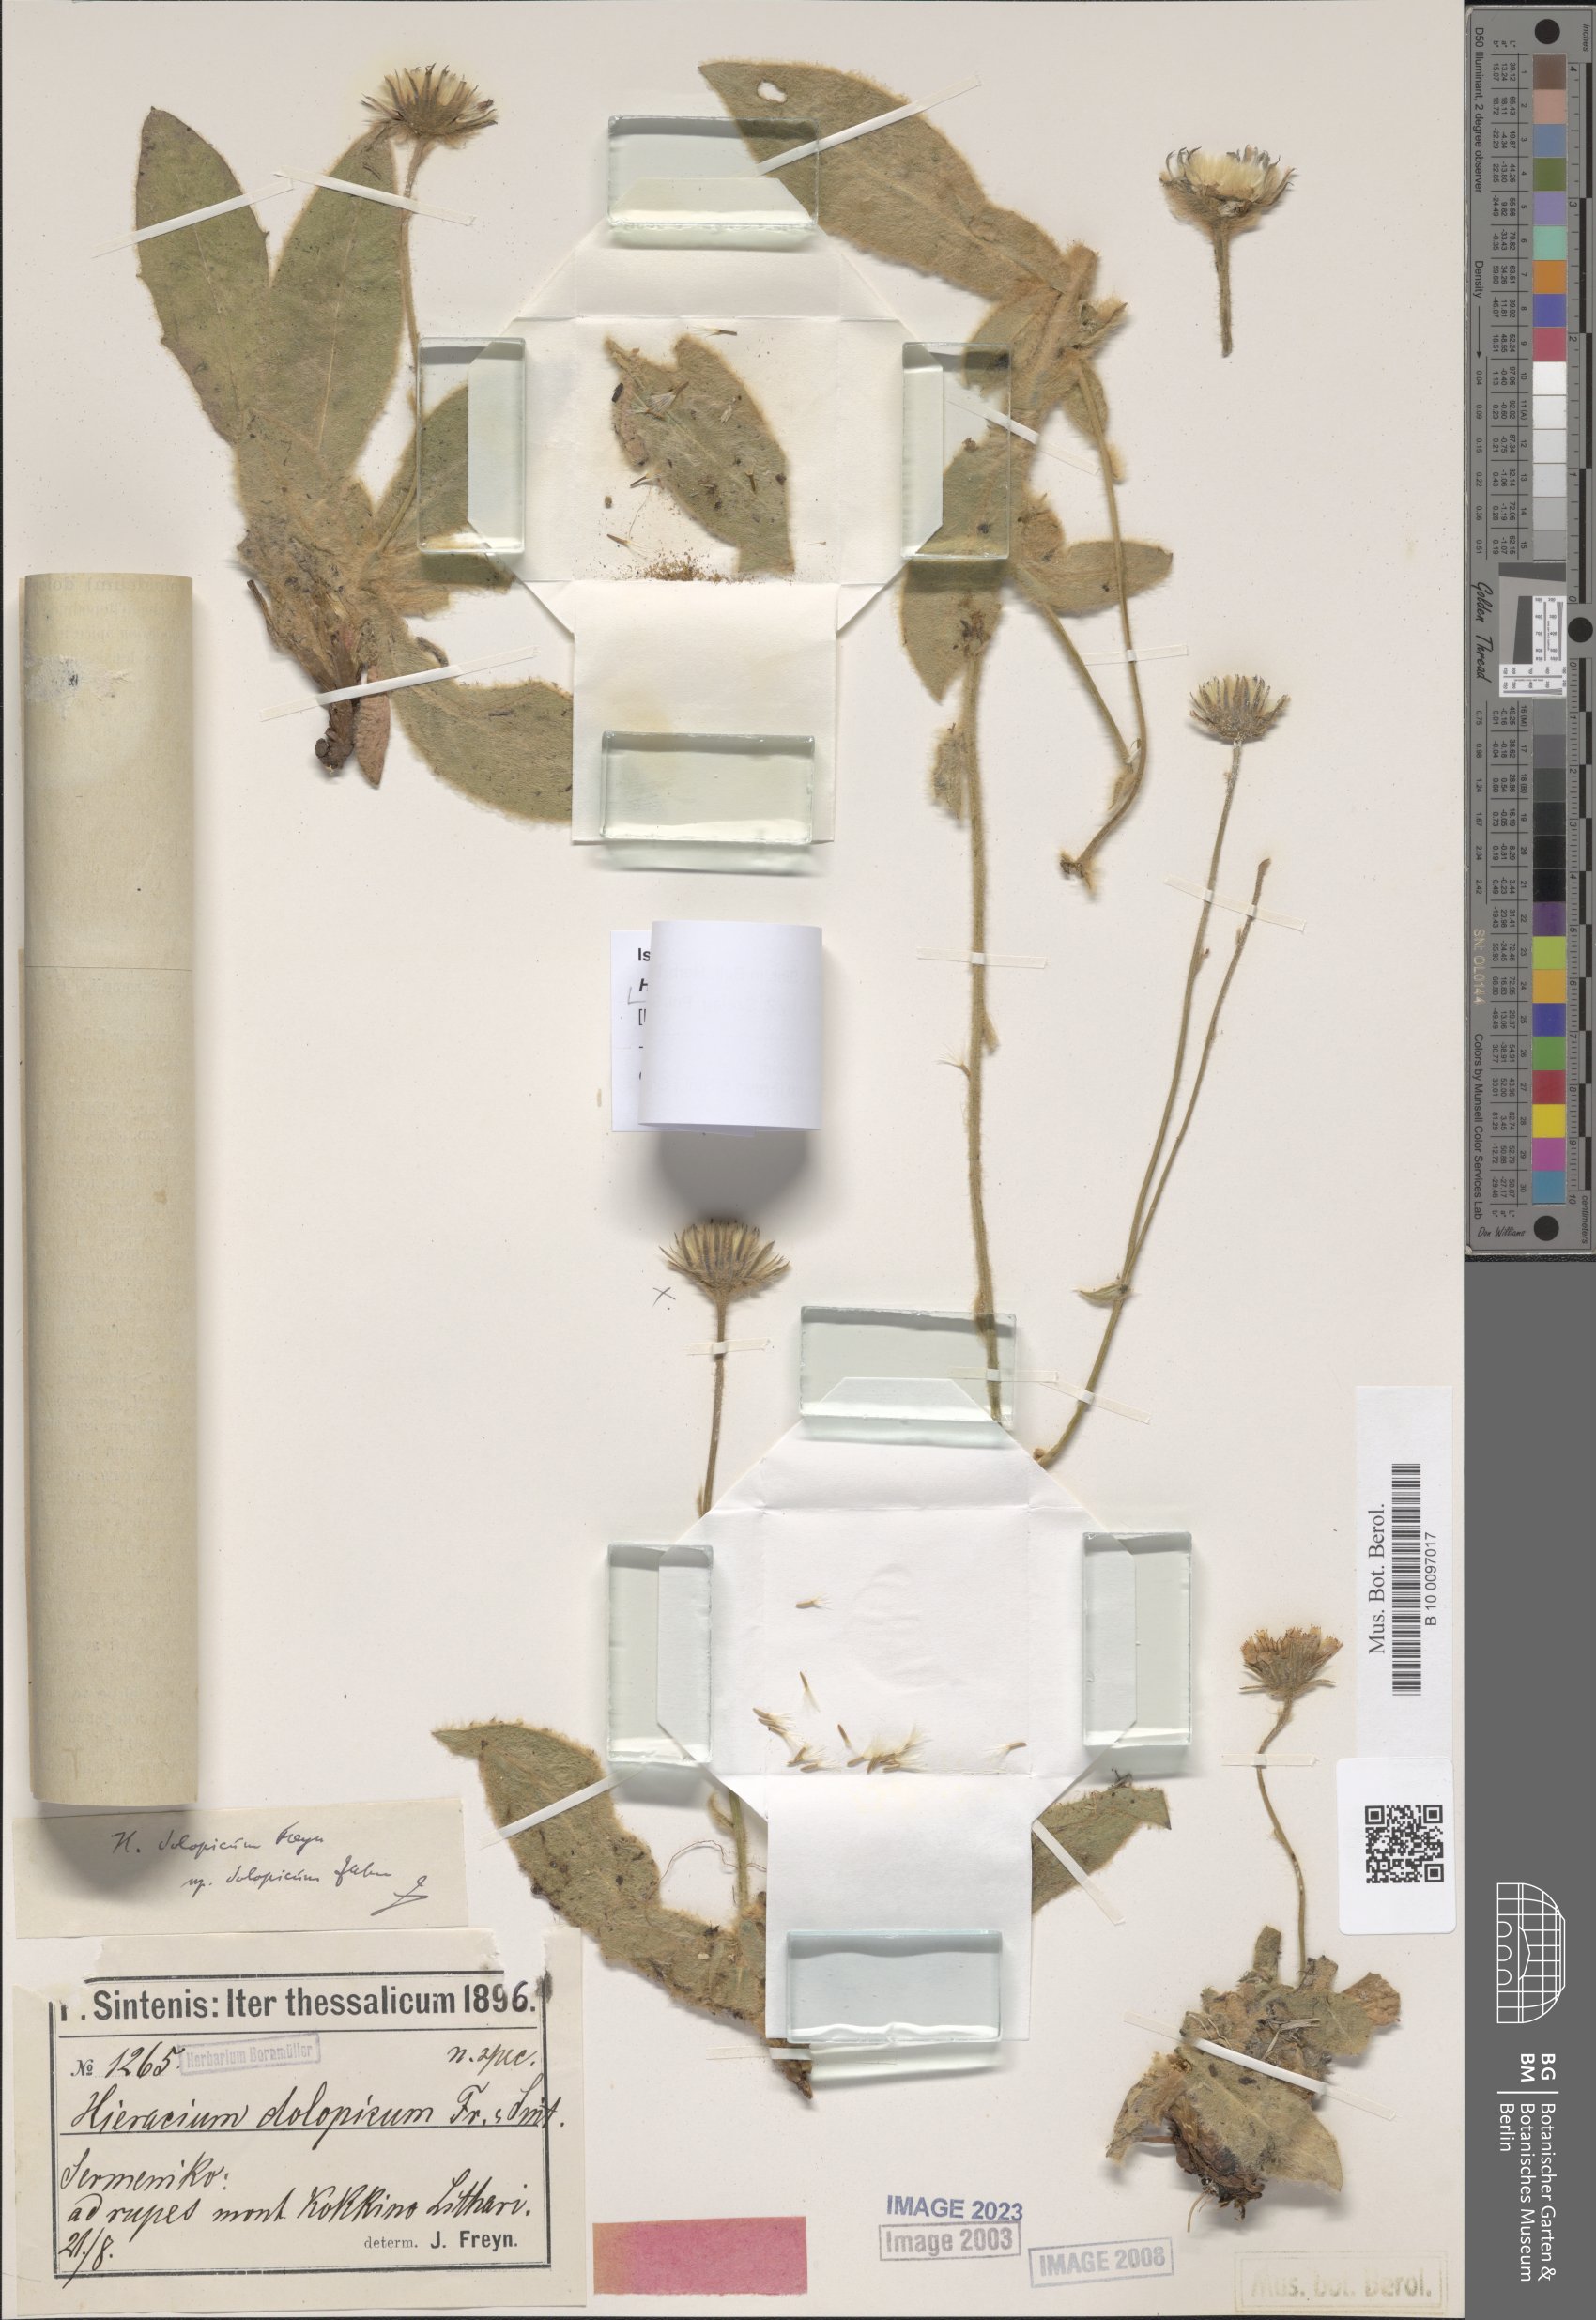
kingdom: Plantae
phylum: Tracheophyta
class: Magnoliopsida
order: Asterales
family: Asteraceae
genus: Hieracium
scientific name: Hieracium bosniacum
